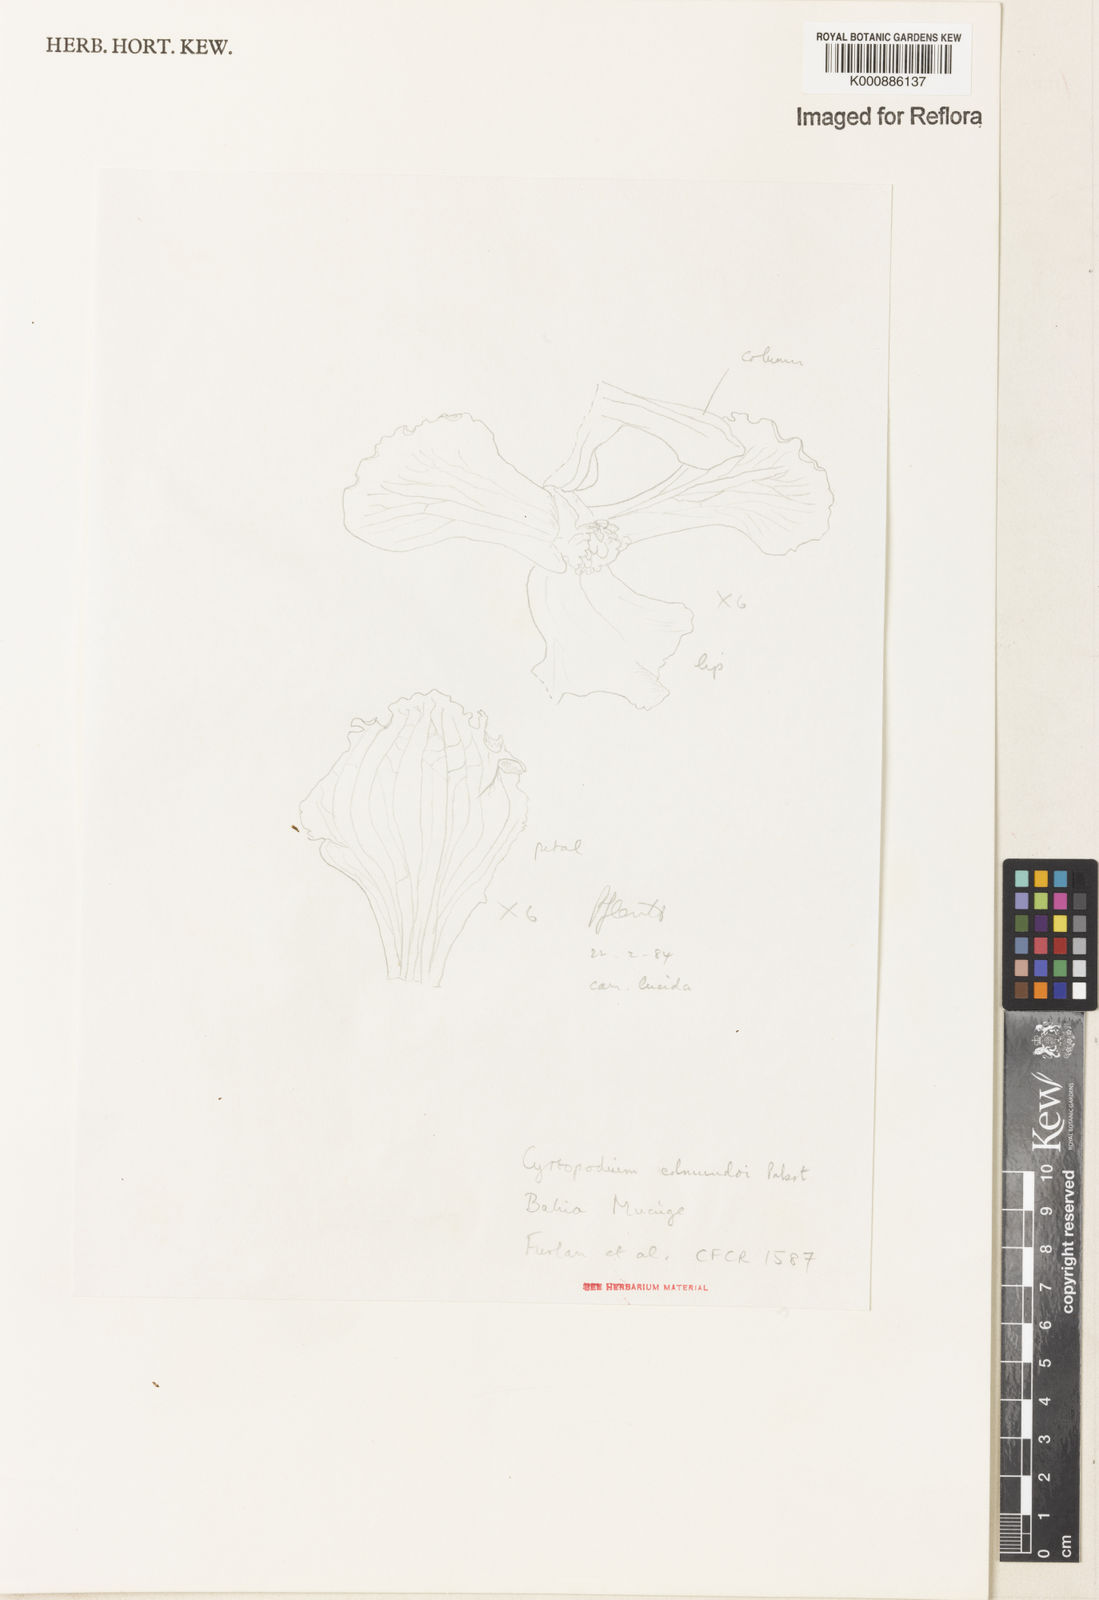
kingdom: Plantae
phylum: Tracheophyta
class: Liliopsida
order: Asparagales
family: Orchidaceae
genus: Cyrtopodium
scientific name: Cyrtopodium aliciae
